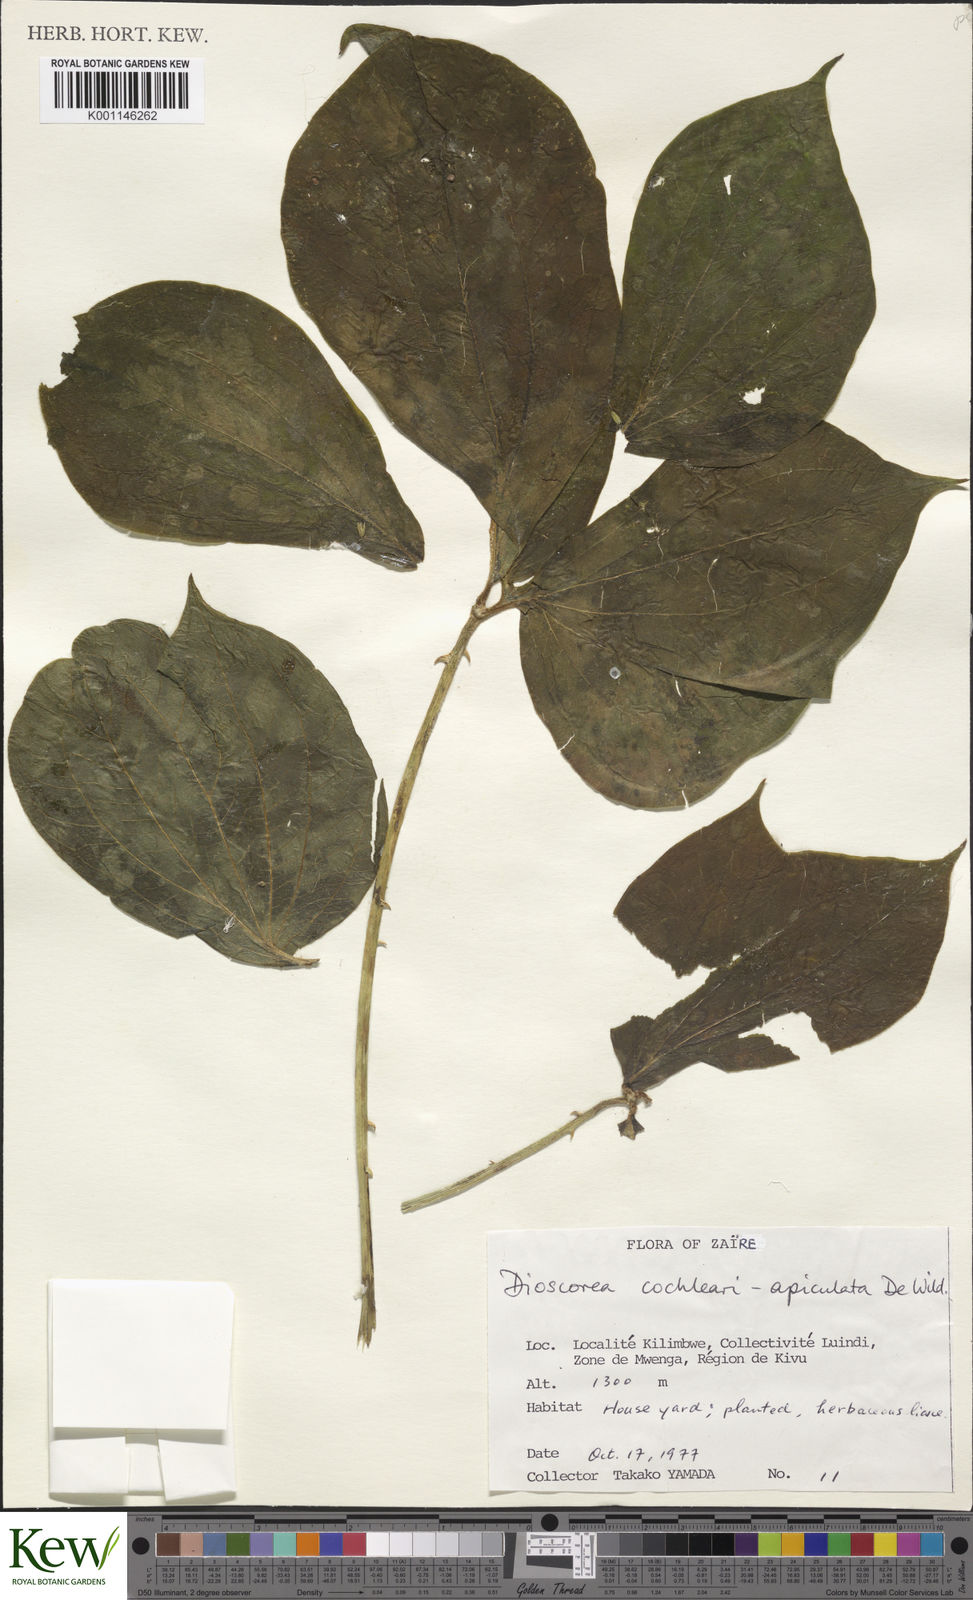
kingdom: Plantae
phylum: Tracheophyta
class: Liliopsida
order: Dioscoreales
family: Dioscoreaceae
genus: Dioscorea
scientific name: Dioscorea cochleariapiculata
